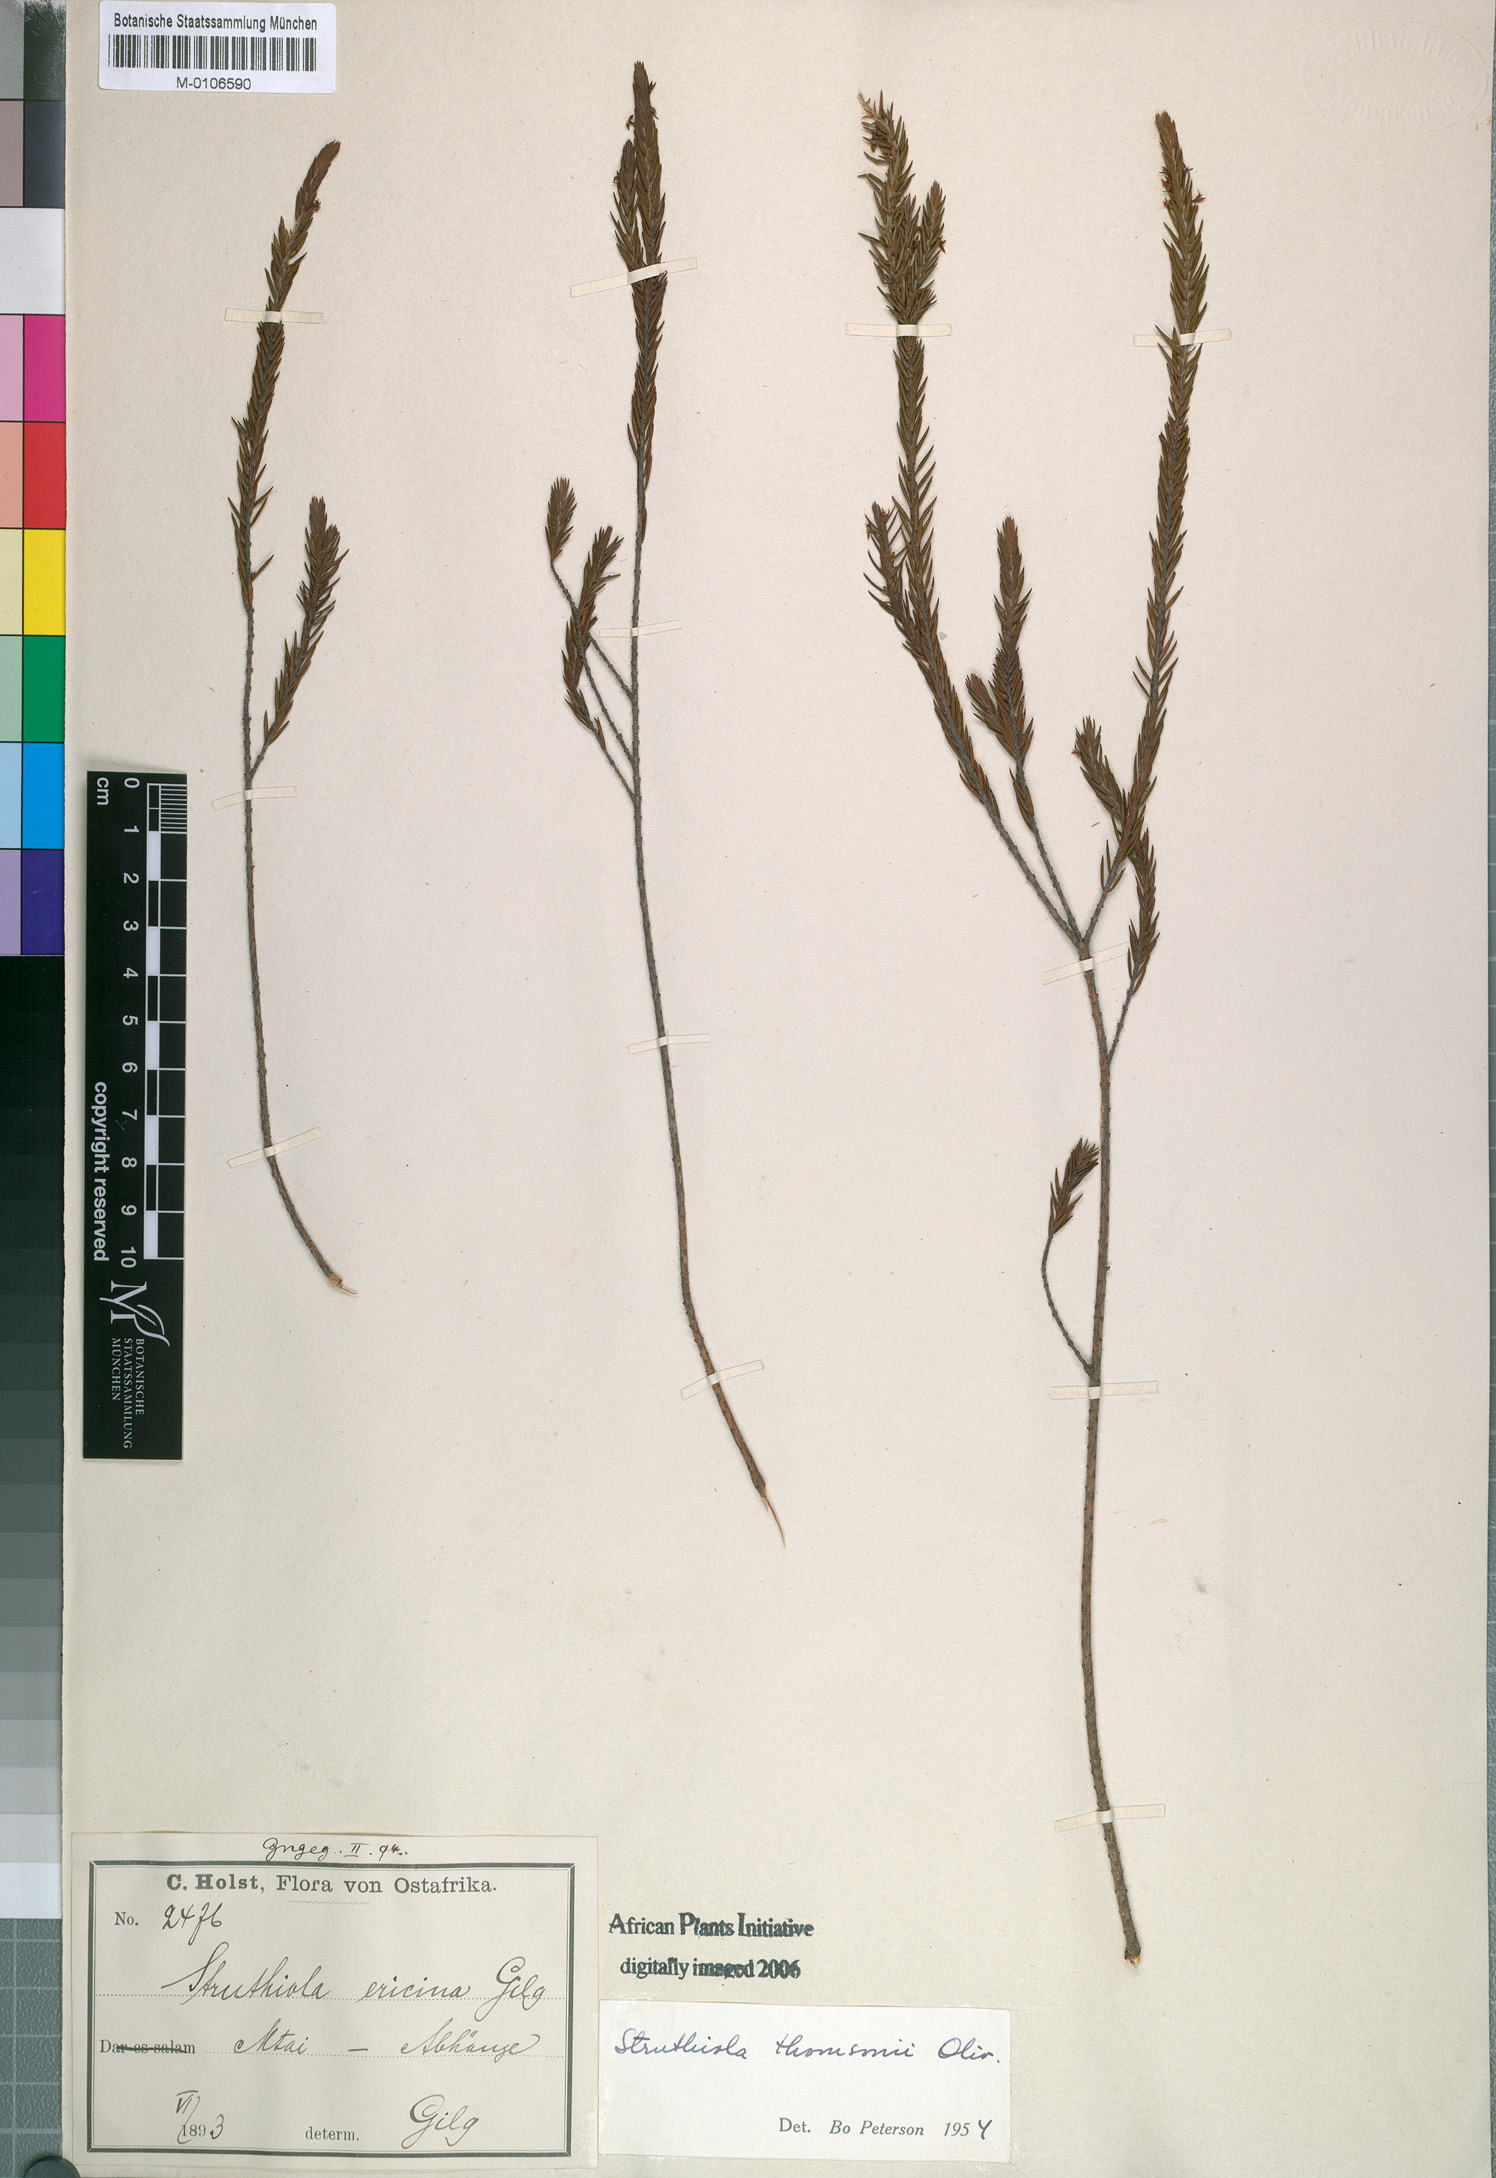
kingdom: Plantae
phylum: Tracheophyta
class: Magnoliopsida
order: Malvales
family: Thymelaeaceae
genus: Struthiola
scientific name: Struthiola thomsonii
